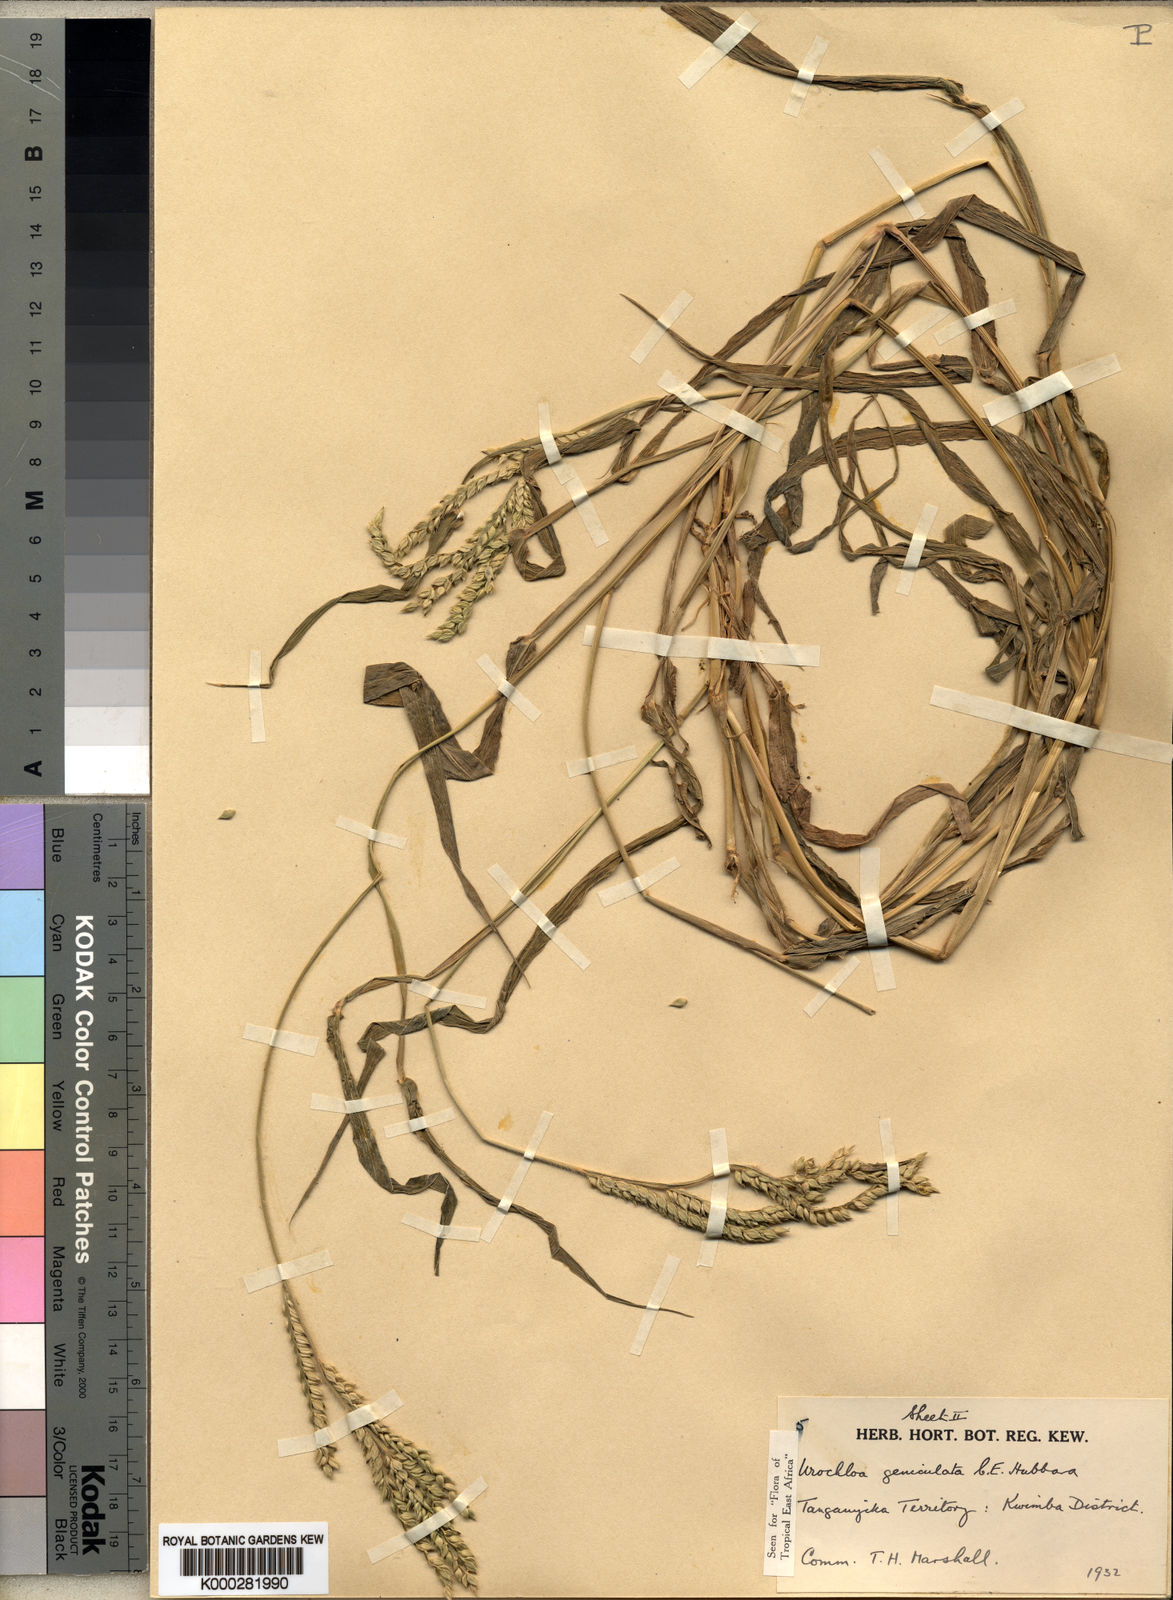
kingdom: Plantae
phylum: Tracheophyta
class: Liliopsida
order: Poales
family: Poaceae
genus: Urochloa
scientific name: Urochloa brachyura
